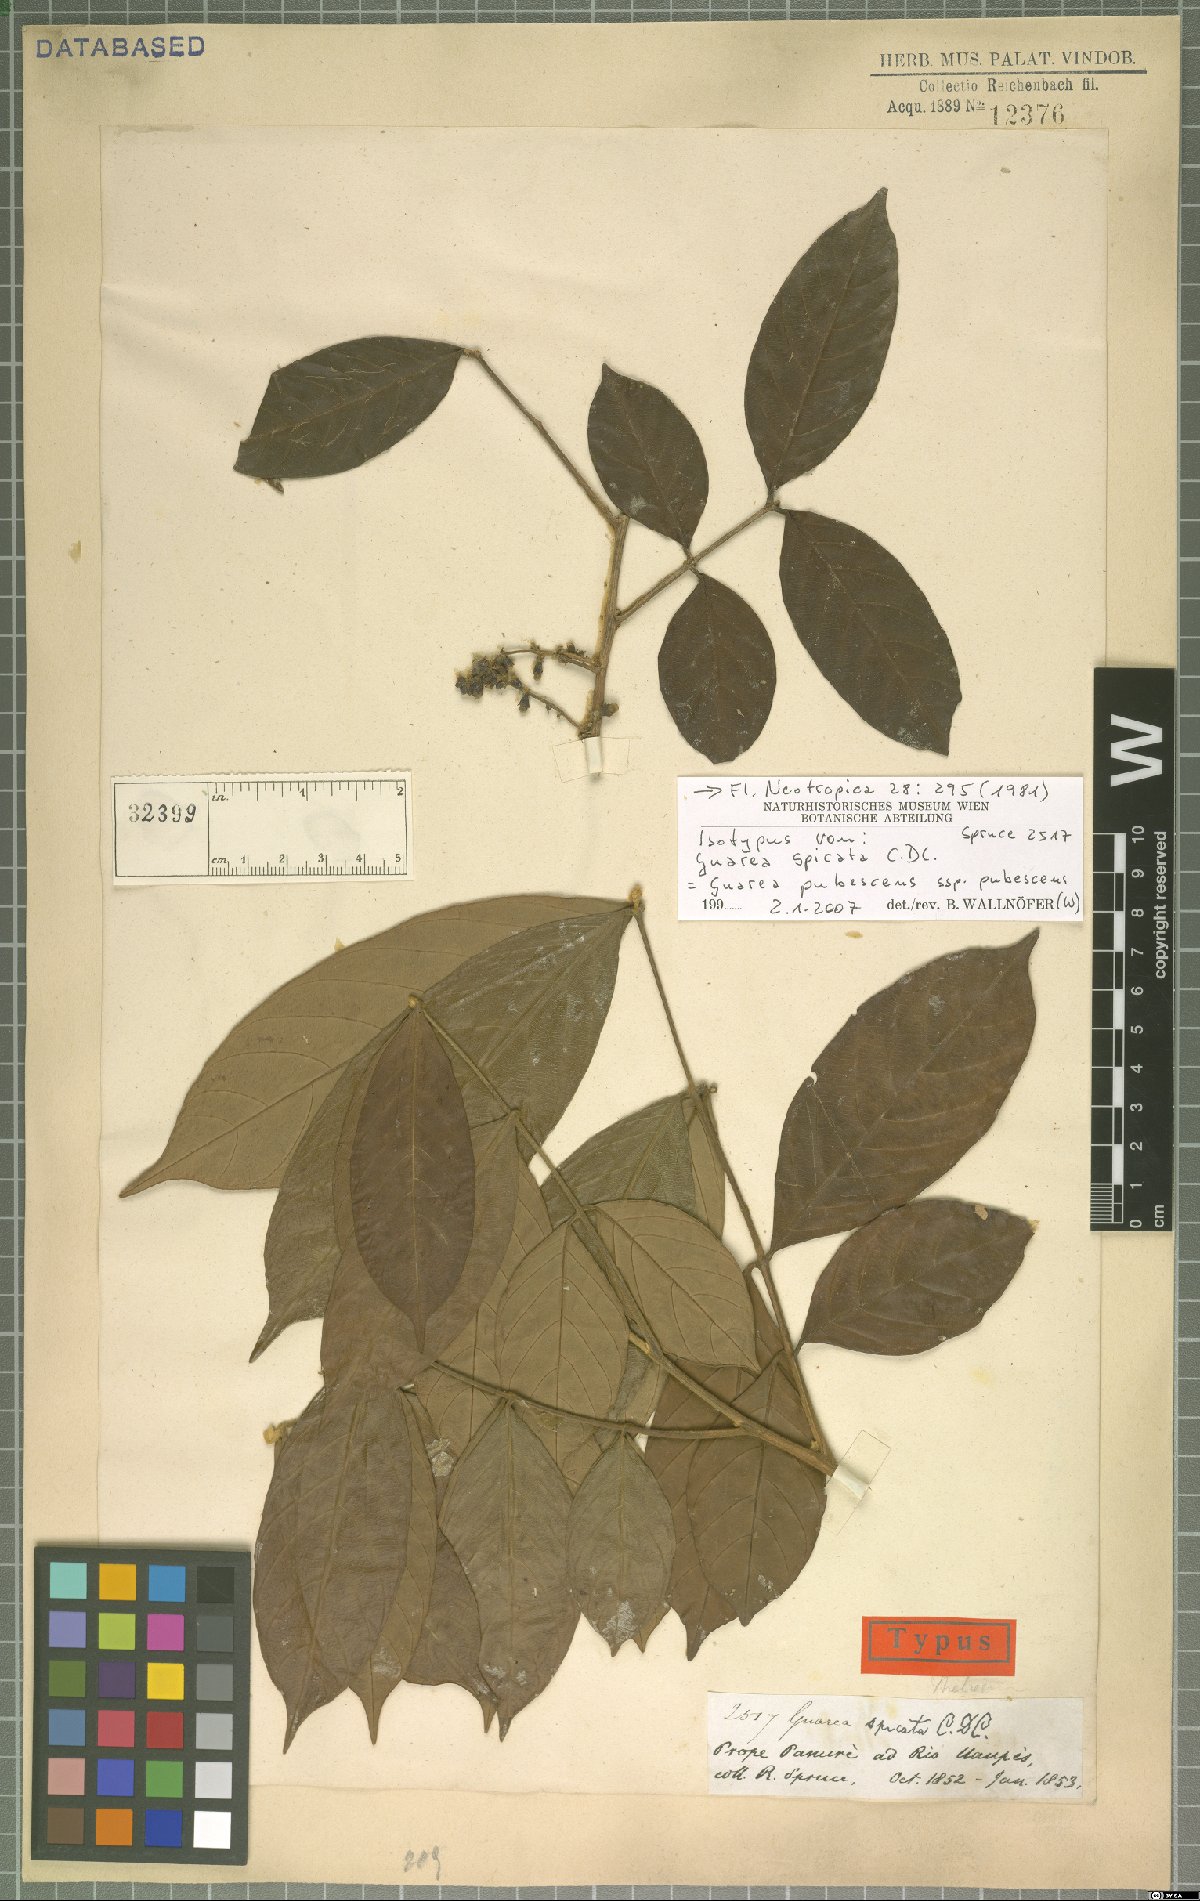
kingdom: Plantae
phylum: Tracheophyta
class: Magnoliopsida
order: Sapindales
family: Meliaceae
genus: Guarea
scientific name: Guarea pubescens
